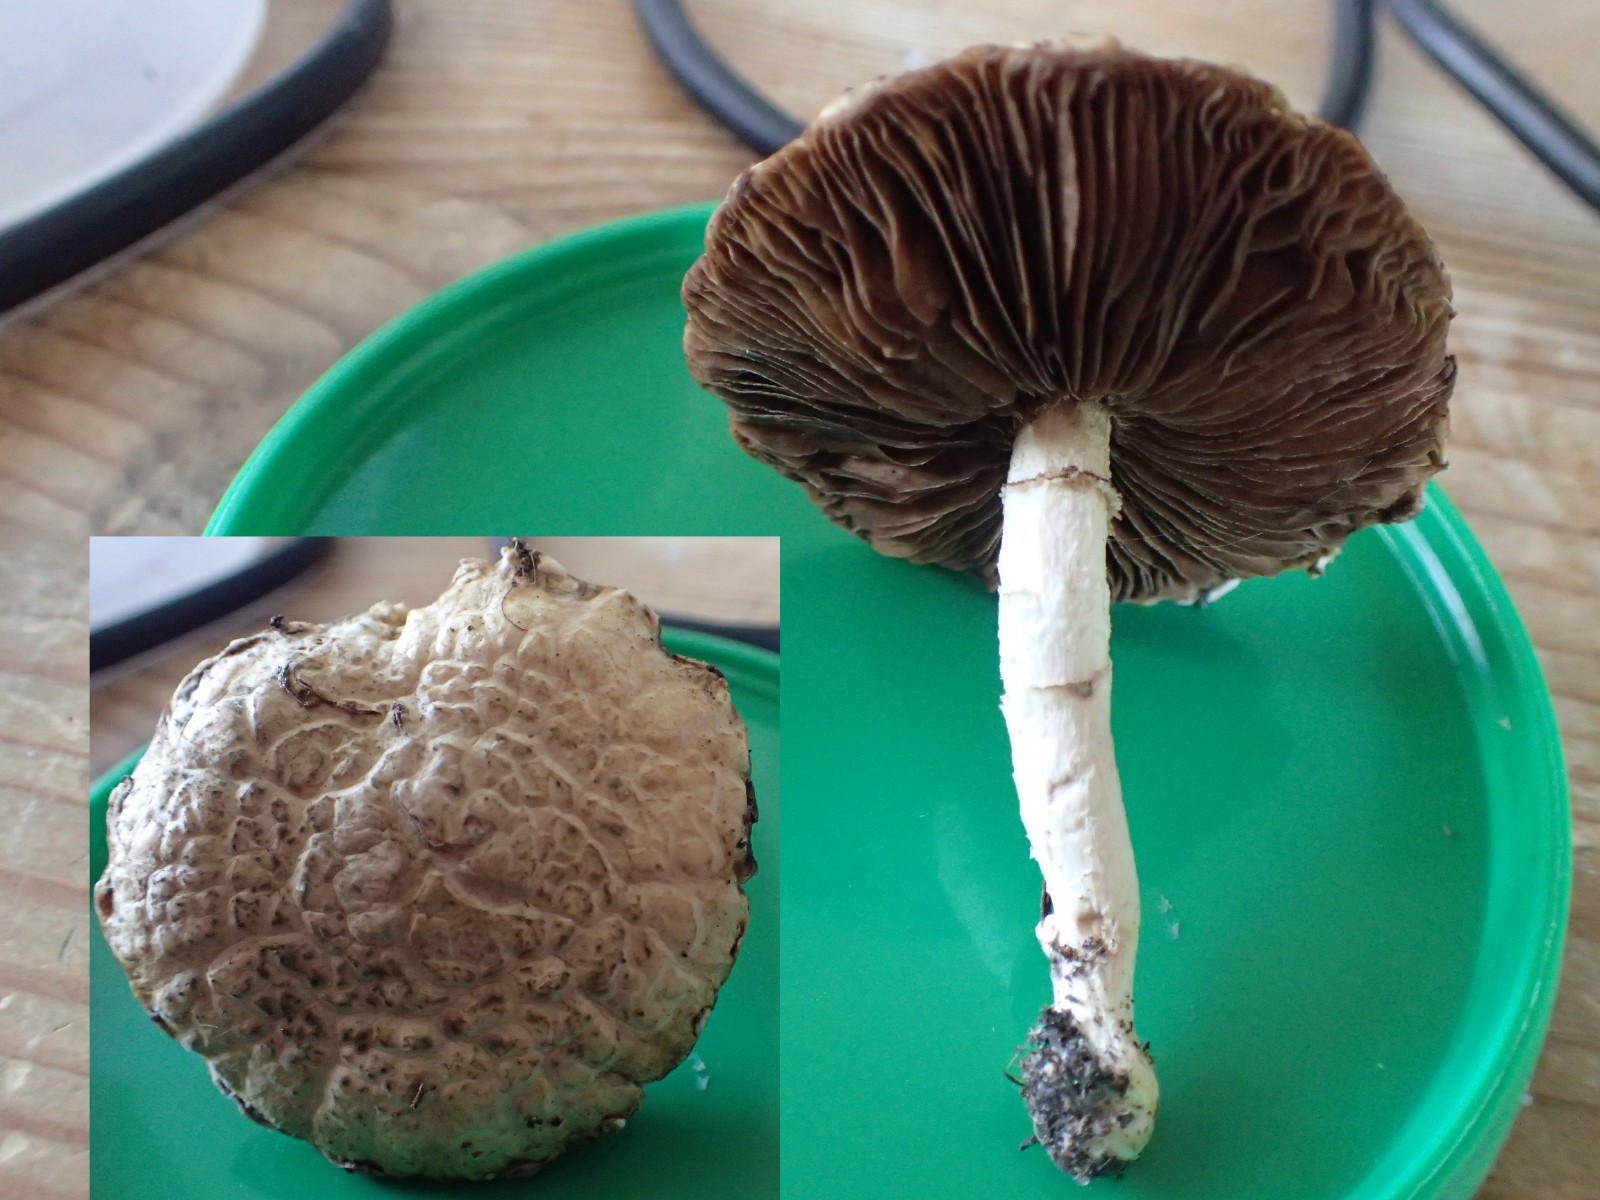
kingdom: Fungi
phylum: Basidiomycota
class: Agaricomycetes
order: Agaricales
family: Strophariaceae
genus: Agrocybe
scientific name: Agrocybe
